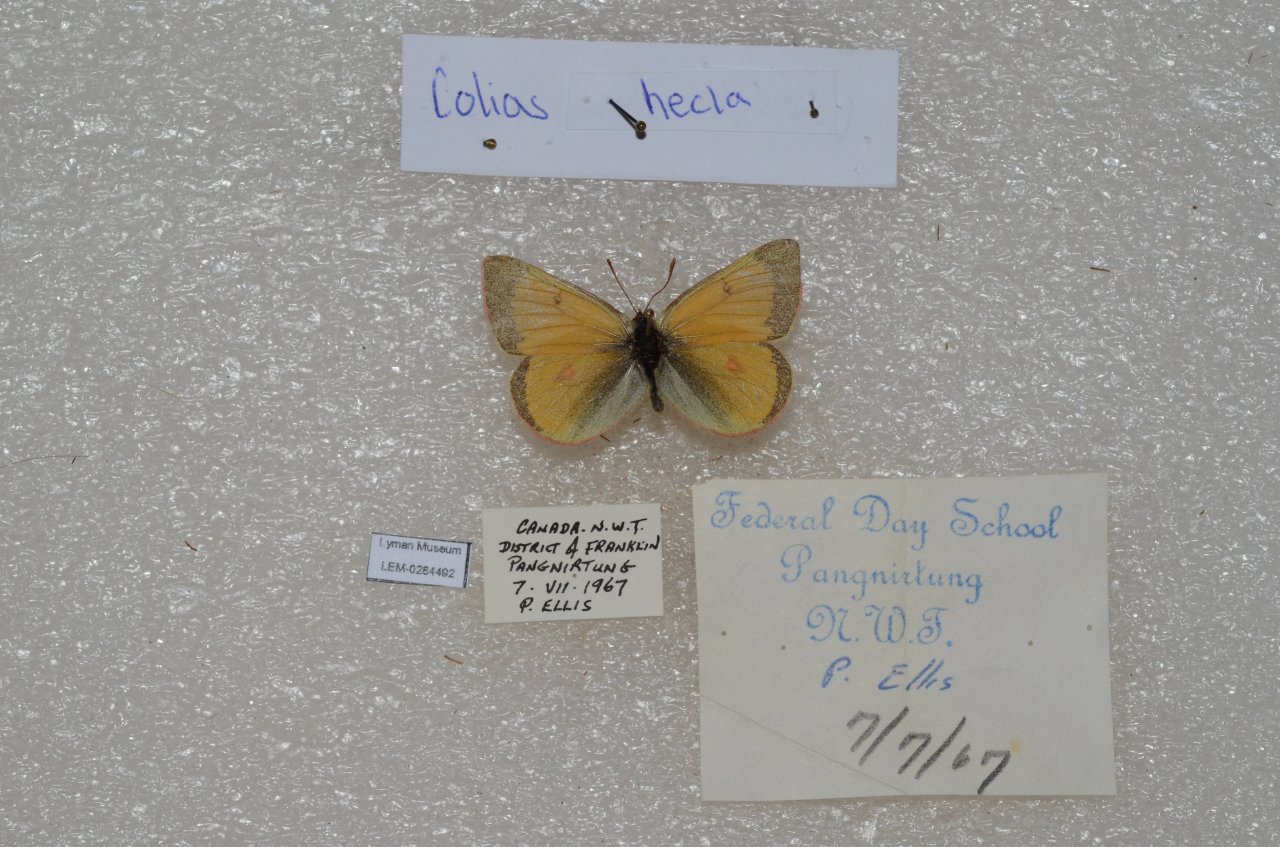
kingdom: Animalia
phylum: Arthropoda
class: Insecta
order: Lepidoptera
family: Pieridae
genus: Colias
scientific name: Colias hecla
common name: Hecla Sulphur
